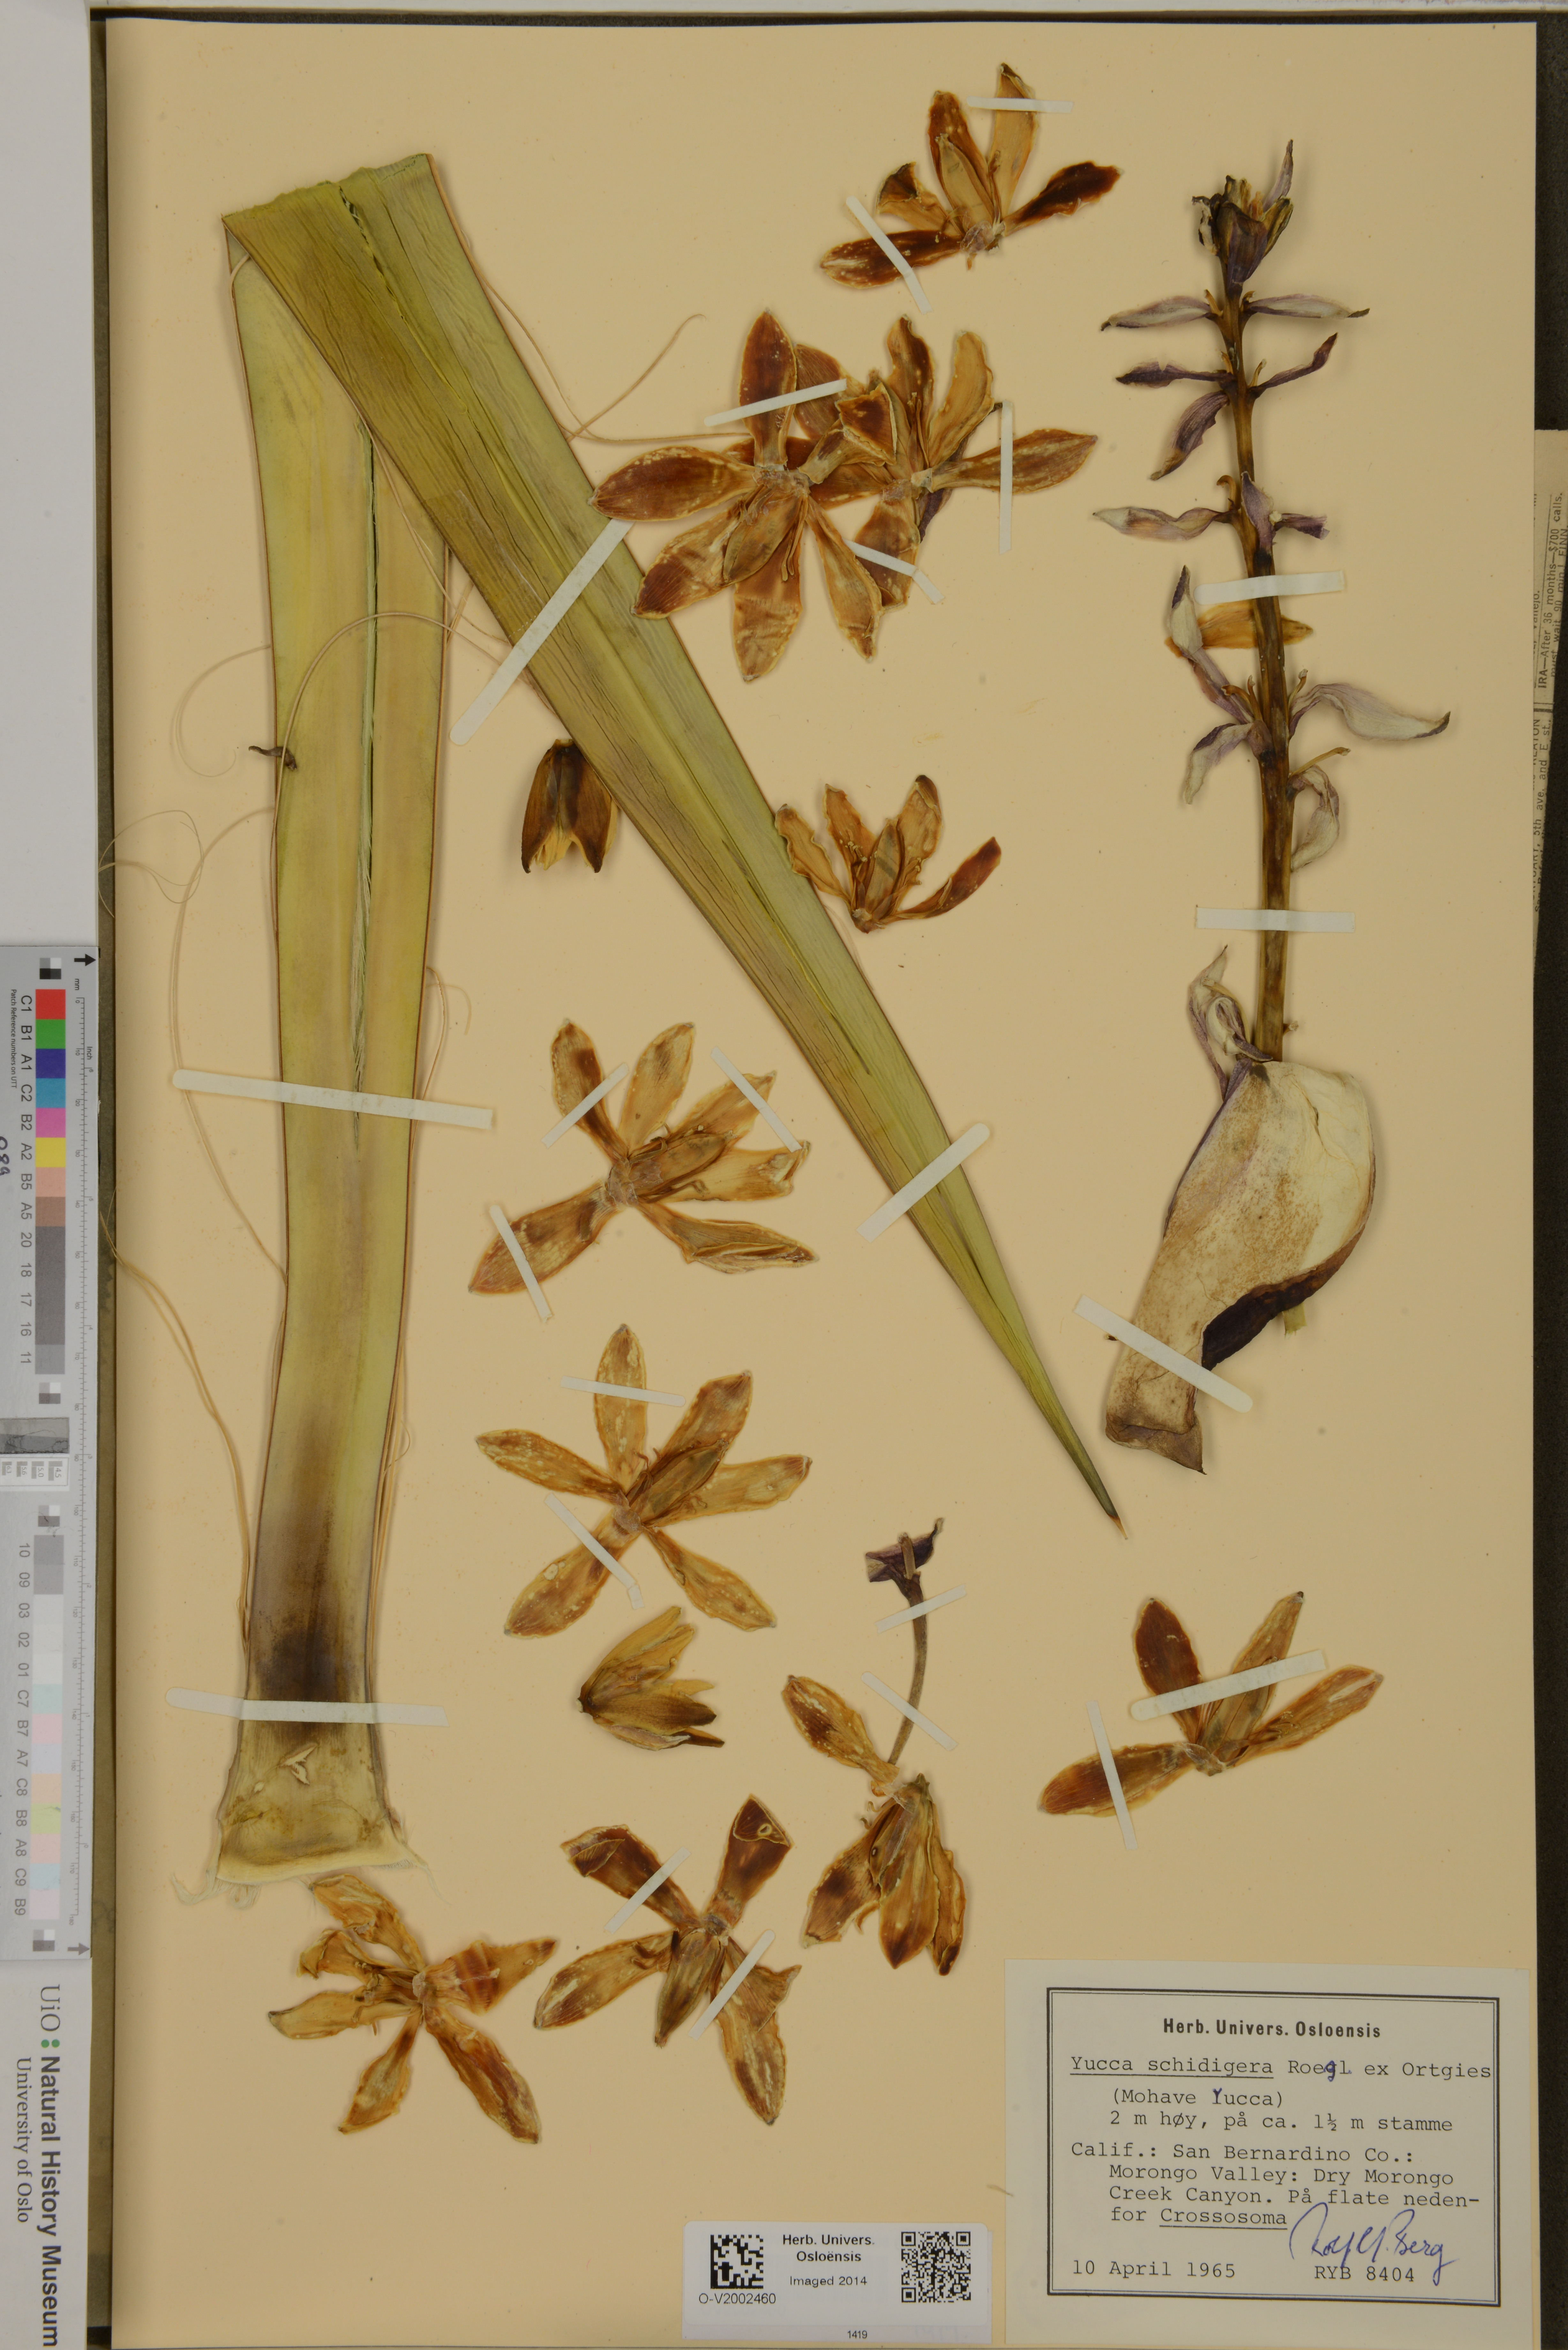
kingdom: Plantae
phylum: Tracheophyta
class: Liliopsida
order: Asparagales
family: Asparagaceae
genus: Yucca
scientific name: Yucca schidigera
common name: Mojave yucca
